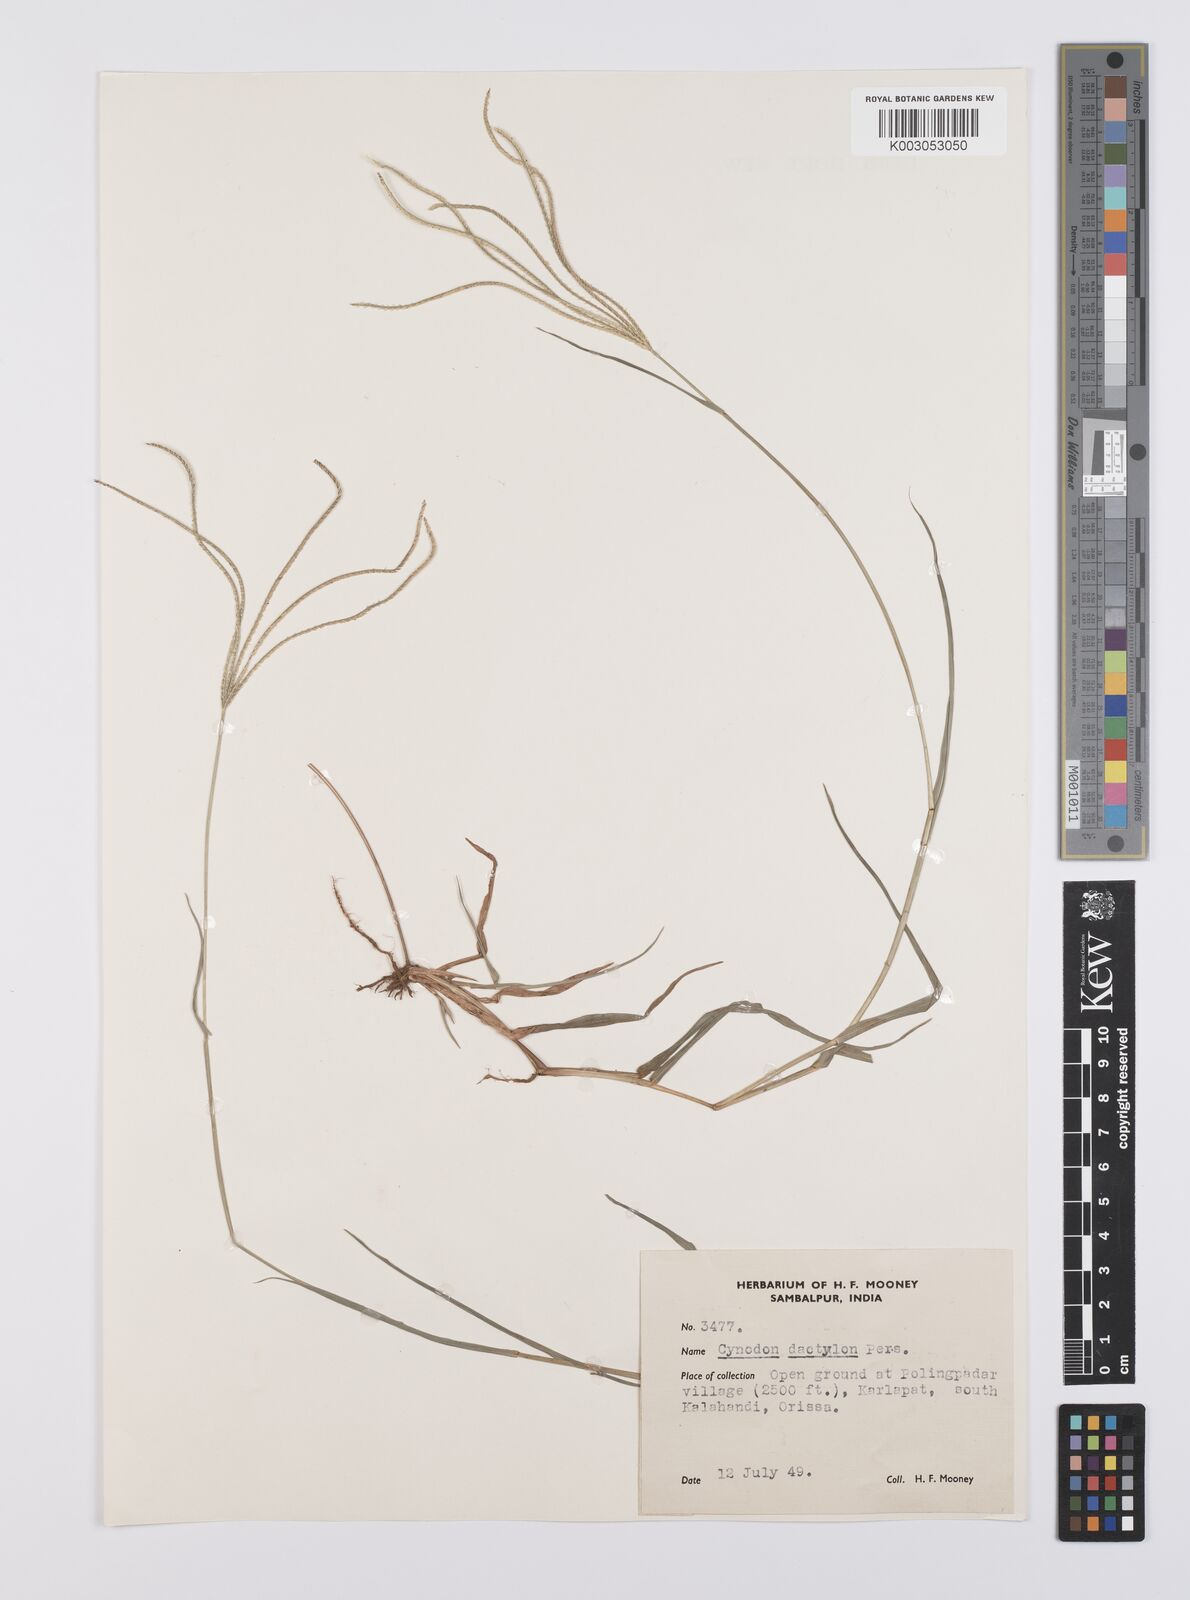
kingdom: Plantae
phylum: Tracheophyta
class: Liliopsida
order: Poales
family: Poaceae
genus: Cynodon
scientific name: Cynodon radiatus
